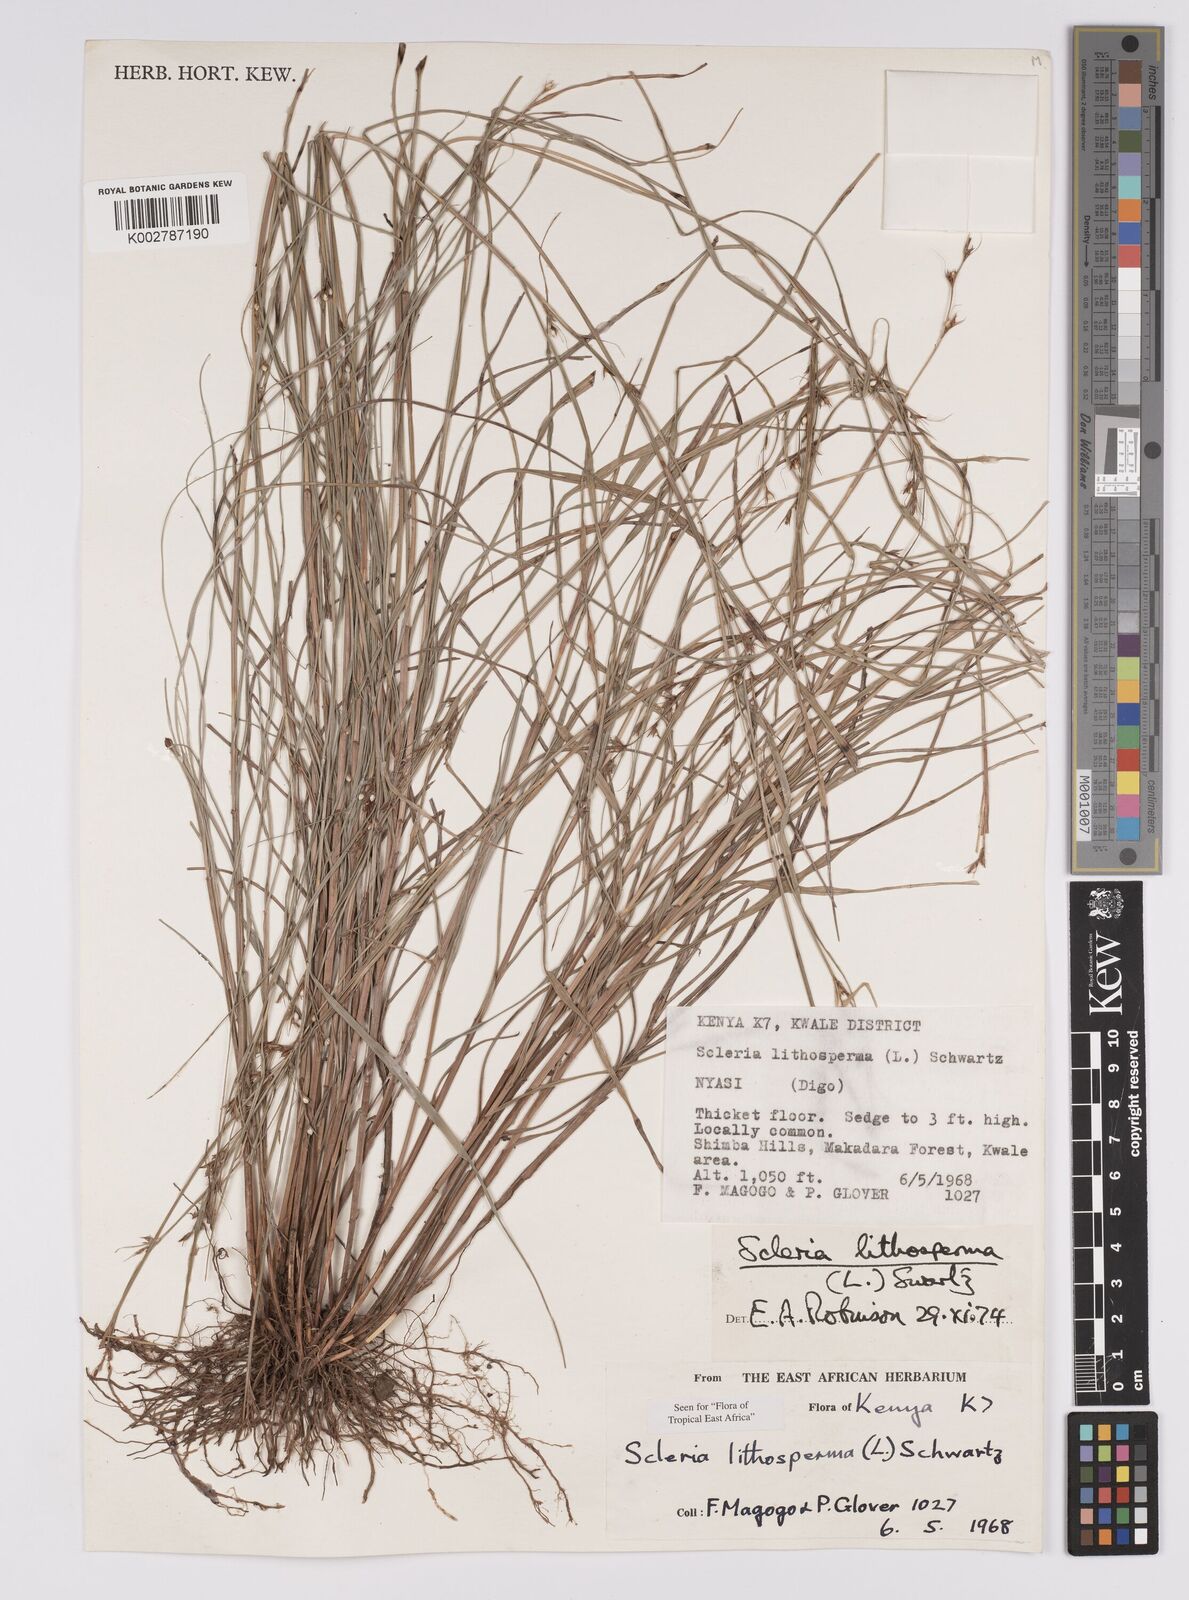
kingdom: Plantae
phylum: Tracheophyta
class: Liliopsida
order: Poales
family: Cyperaceae
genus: Scleria
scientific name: Scleria lithosperma
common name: Florida keys nut-rush
